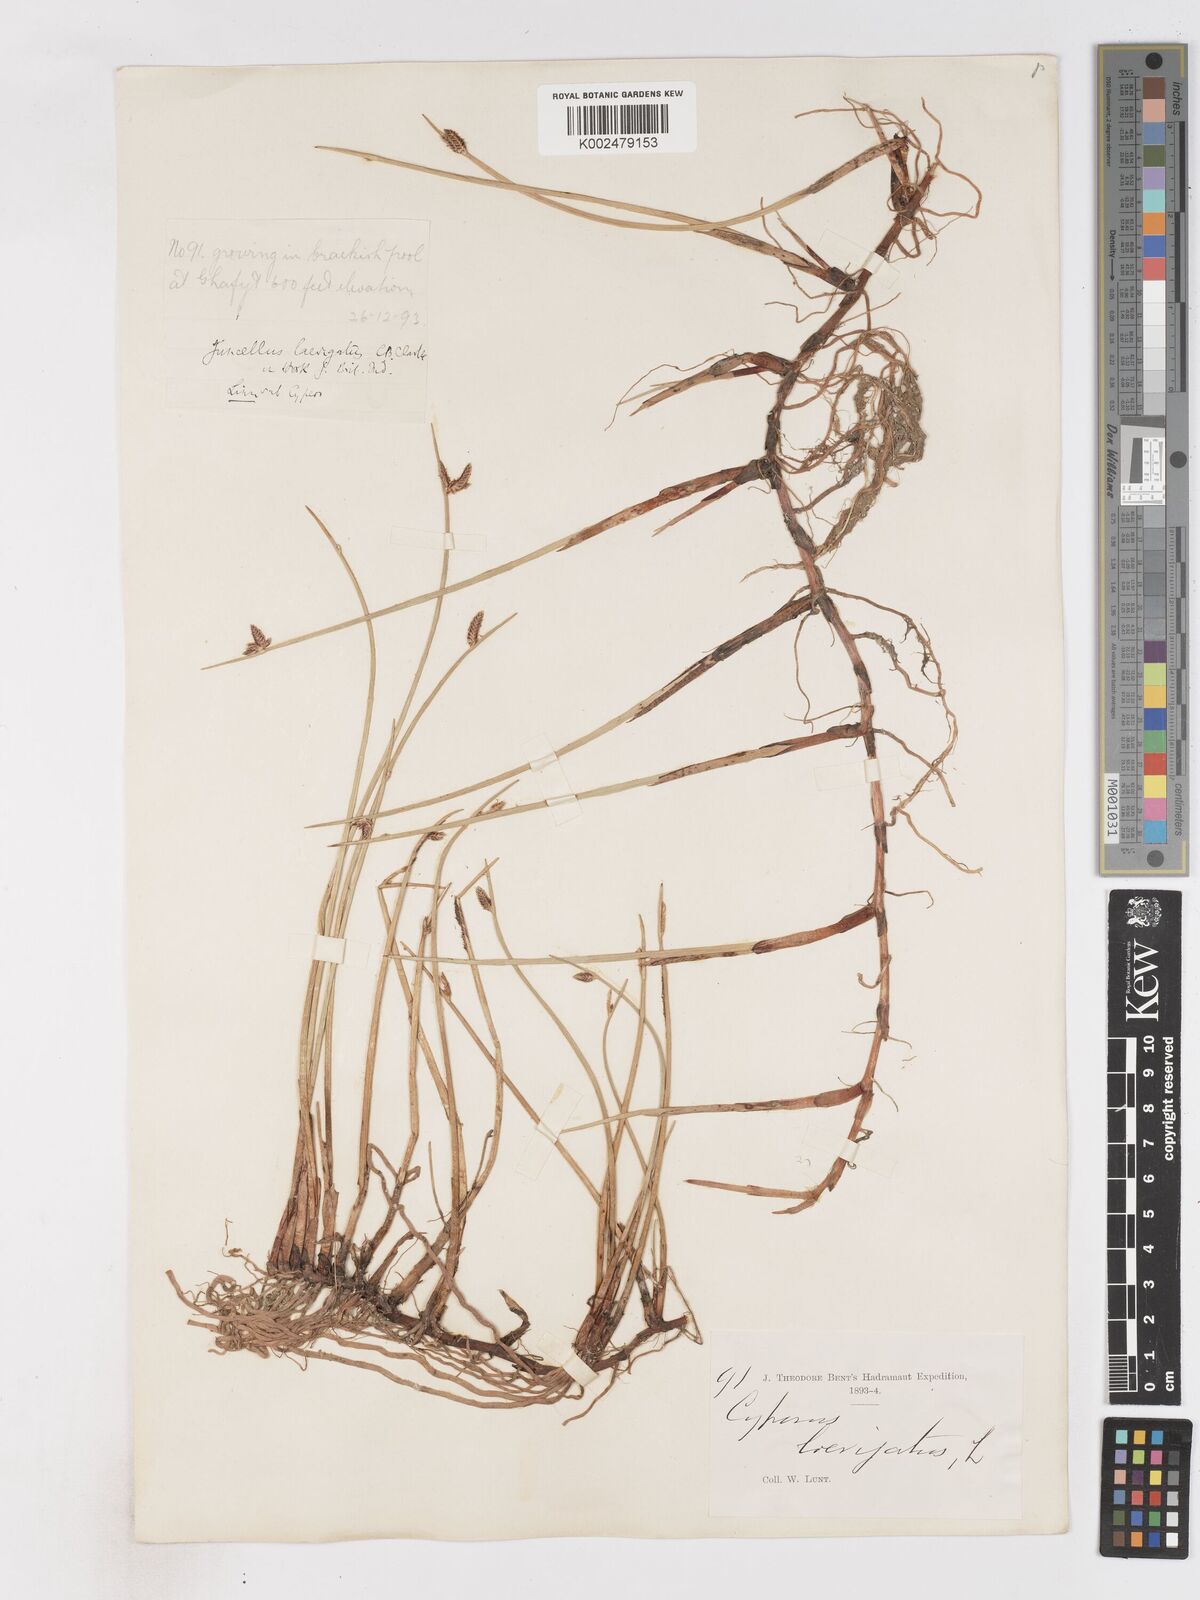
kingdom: Plantae
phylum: Tracheophyta
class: Liliopsida
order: Poales
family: Cyperaceae
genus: Cyperus
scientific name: Cyperus laevigatus
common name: Smooth flat sedge
